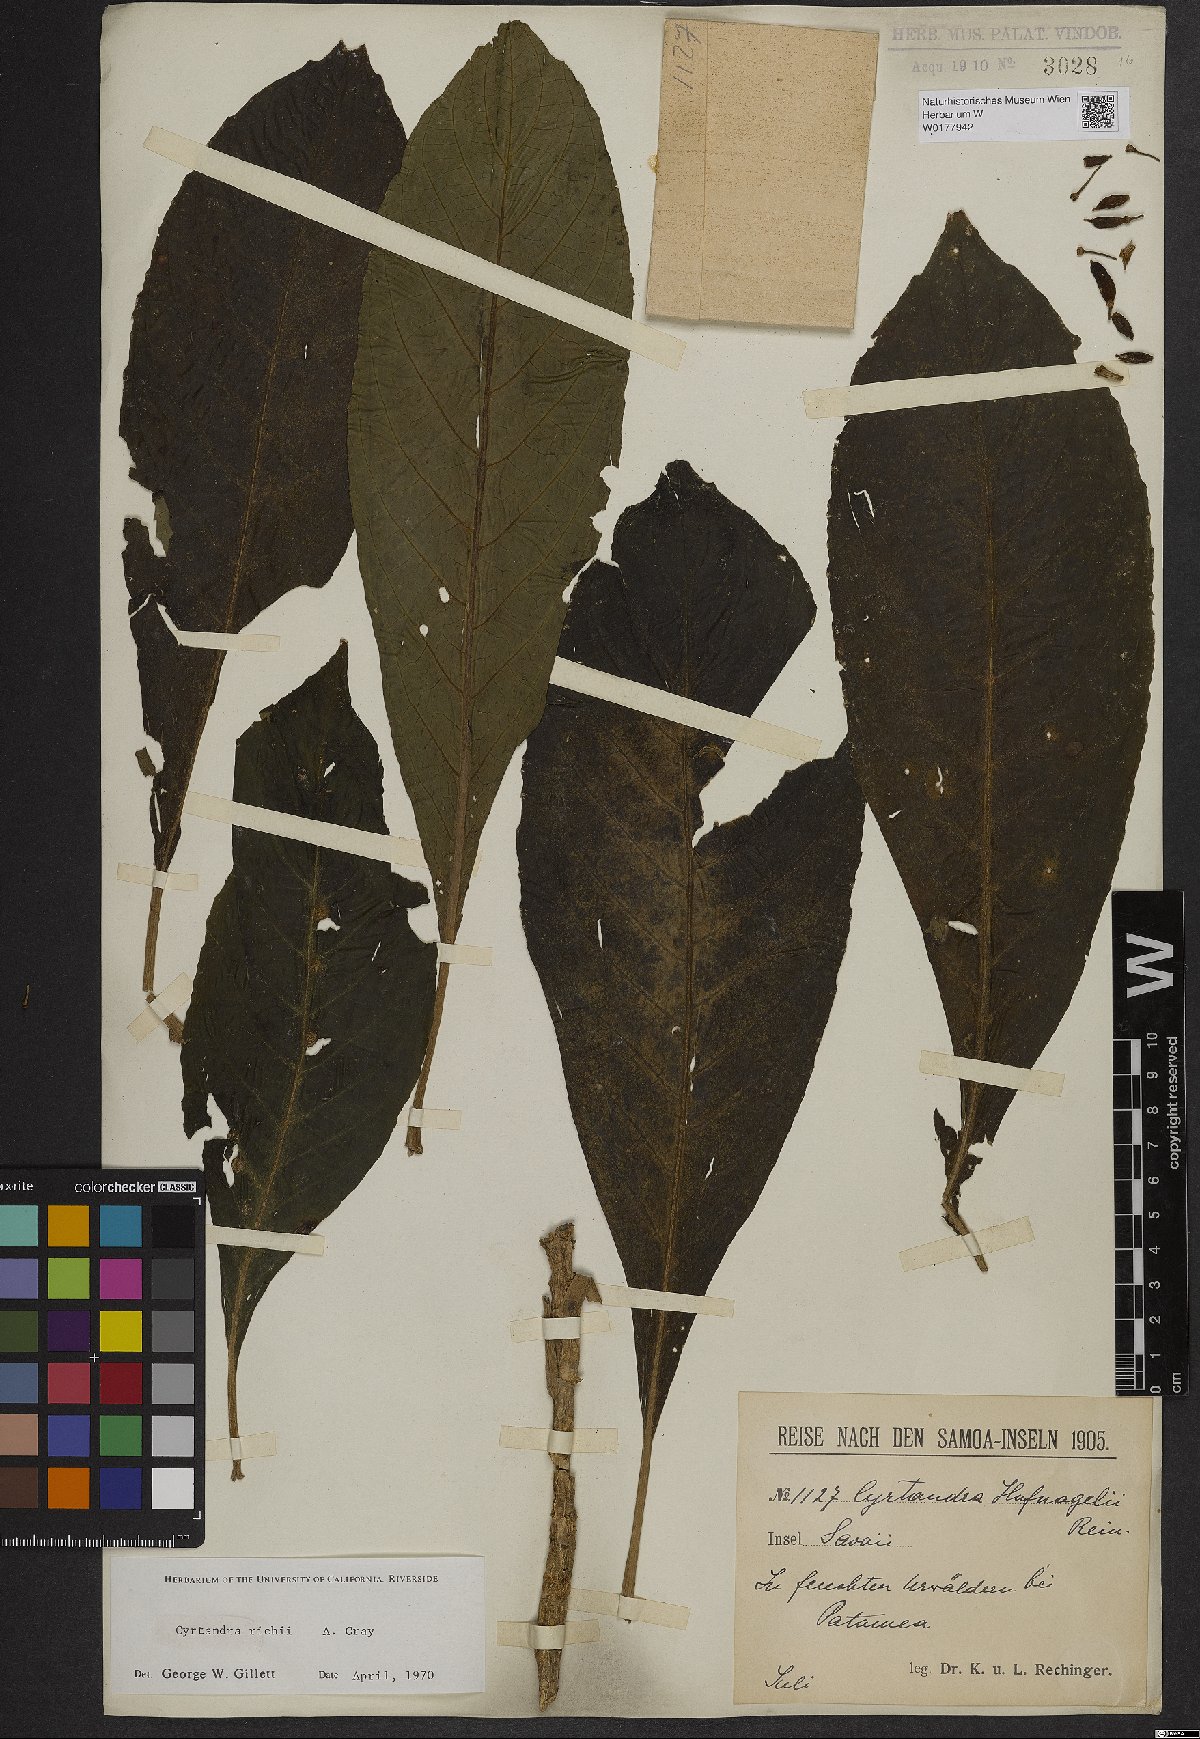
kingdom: Plantae
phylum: Tracheophyta
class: Magnoliopsida
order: Lamiales
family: Gesneriaceae
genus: Cyrtandra
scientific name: Cyrtandra richii
